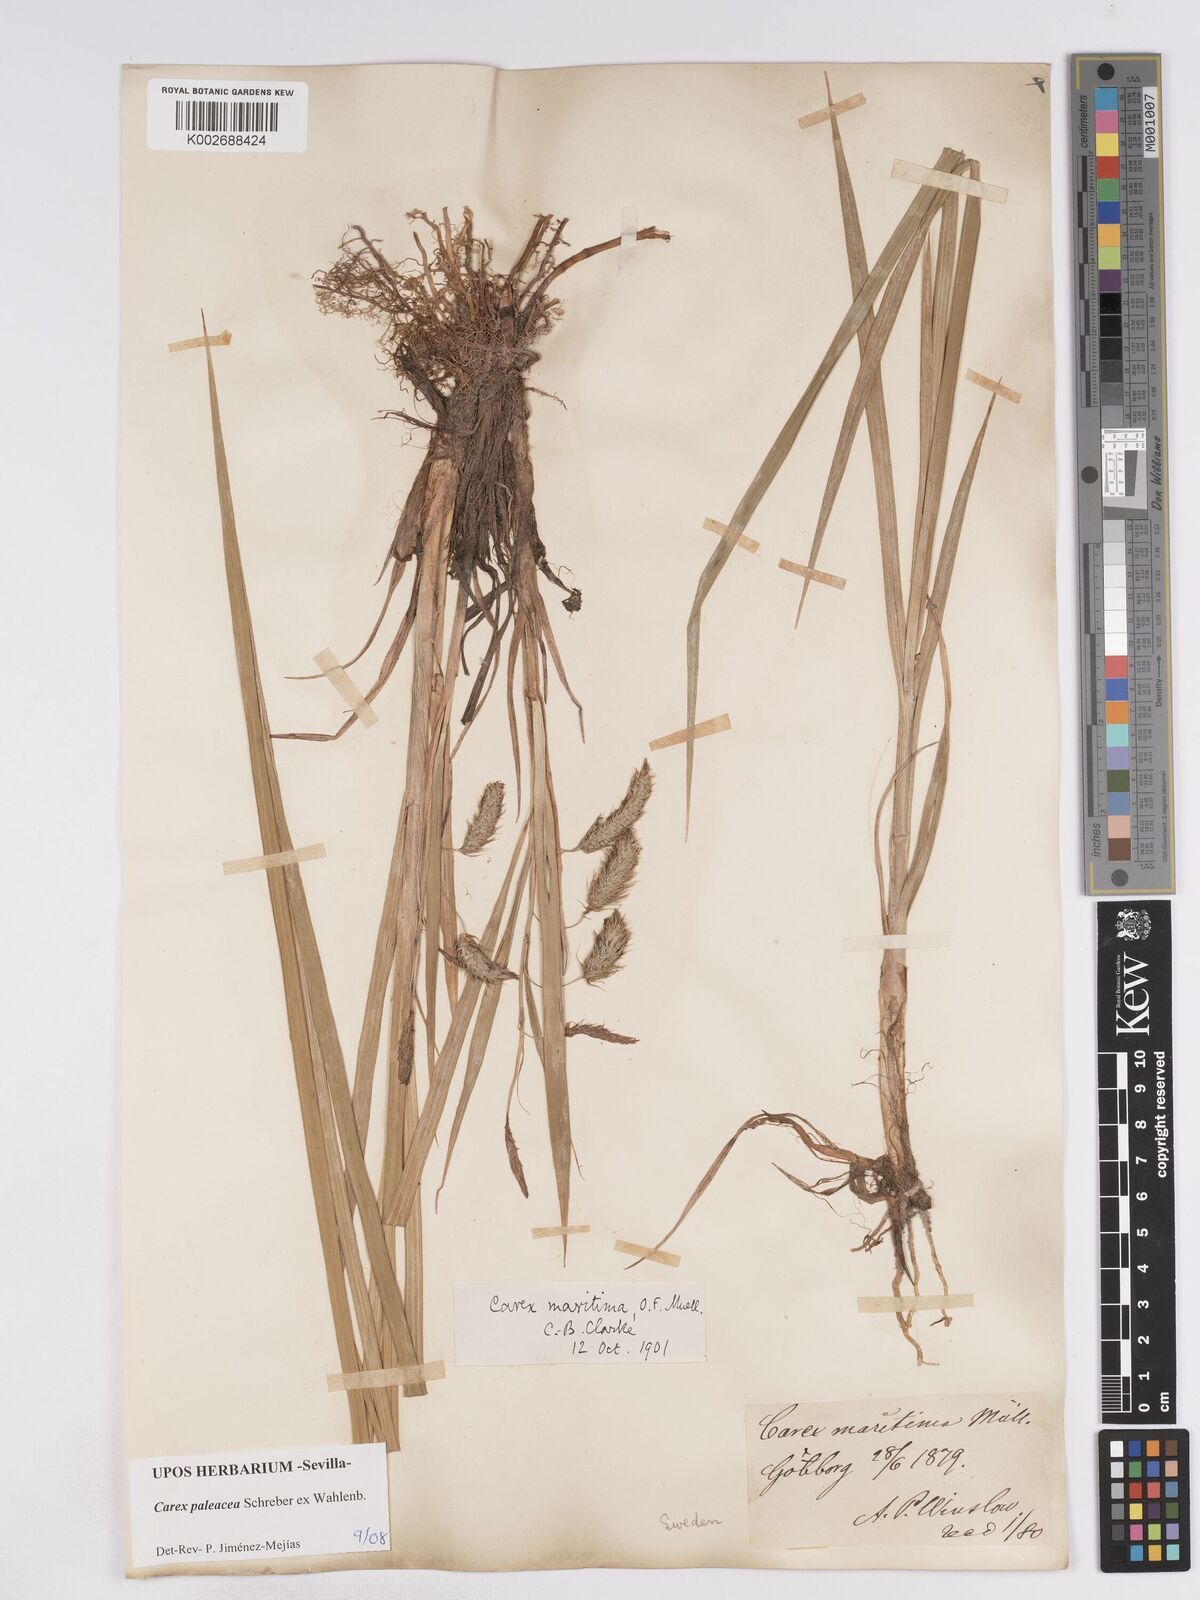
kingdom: Plantae
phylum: Tracheophyta
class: Liliopsida
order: Poales
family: Cyperaceae
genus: Carex
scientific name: Carex paleacea
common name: Chaffy sedge
